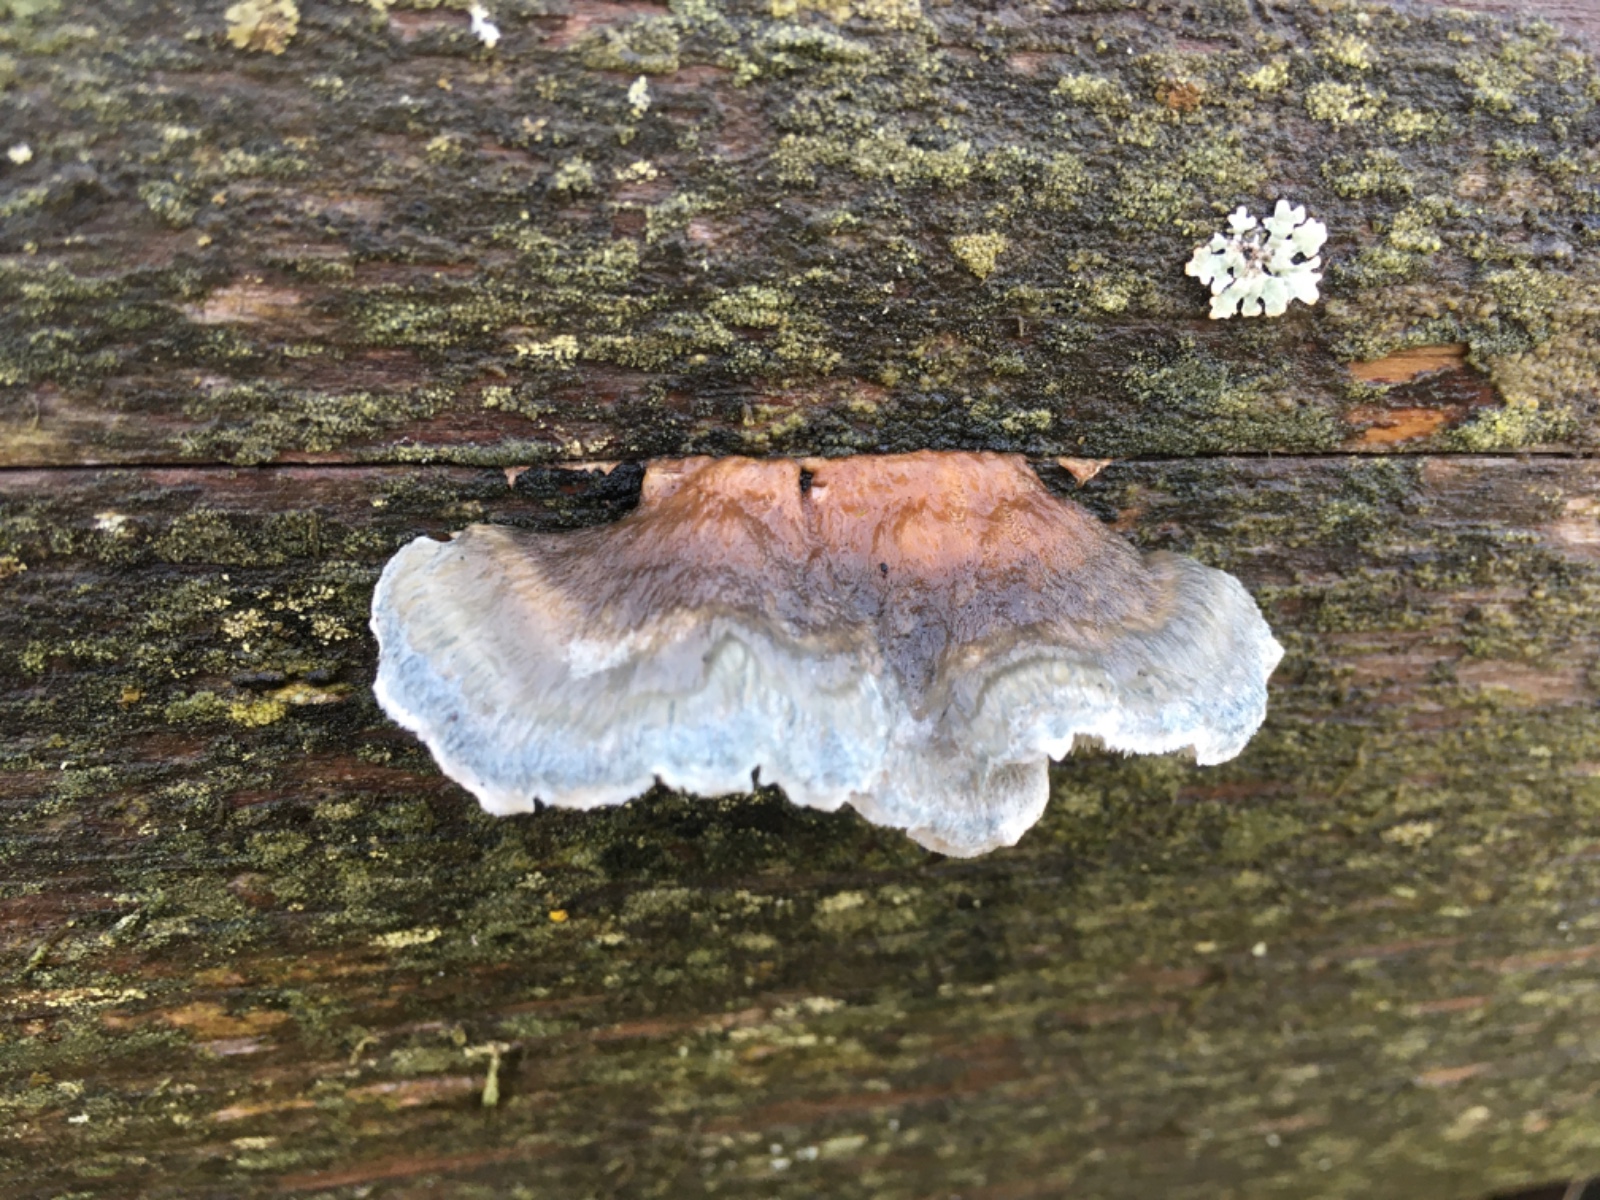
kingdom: Fungi
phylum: Basidiomycota
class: Agaricomycetes
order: Polyporales
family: Dacryobolaceae
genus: Postia
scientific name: Postia
